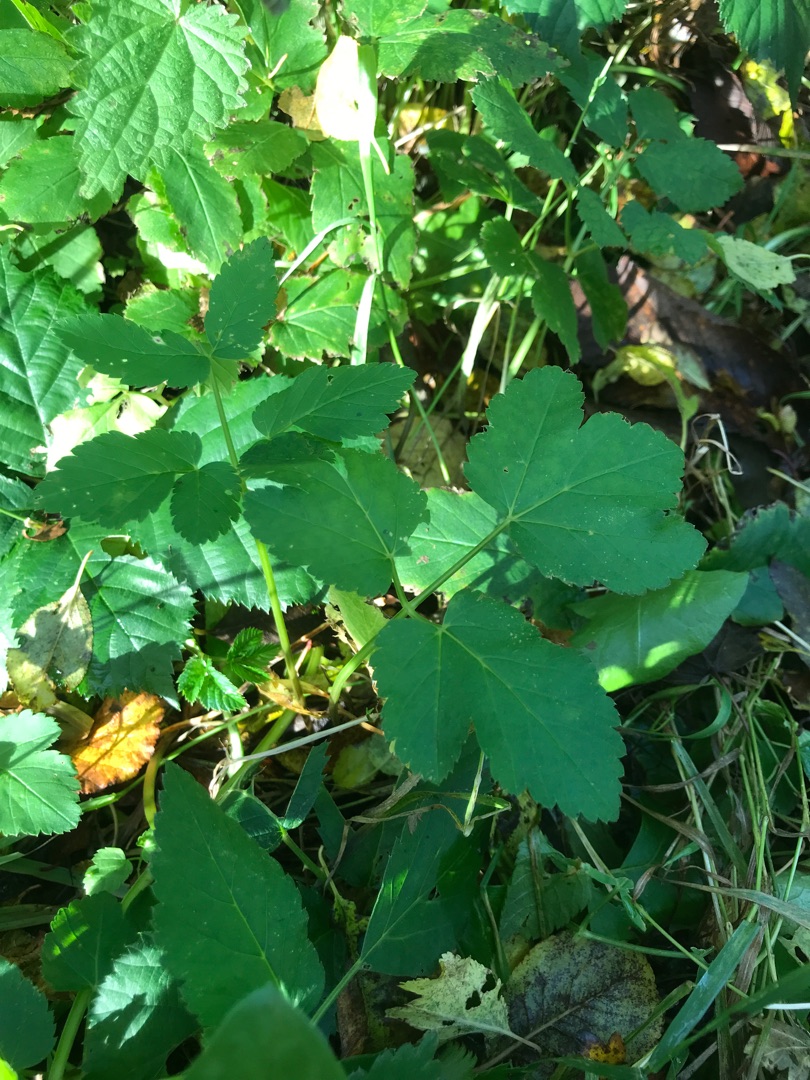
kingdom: Plantae
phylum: Tracheophyta
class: Magnoliopsida
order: Apiales
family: Apiaceae
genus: Aegopodium
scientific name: Aegopodium podagraria
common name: Skvalderkål
